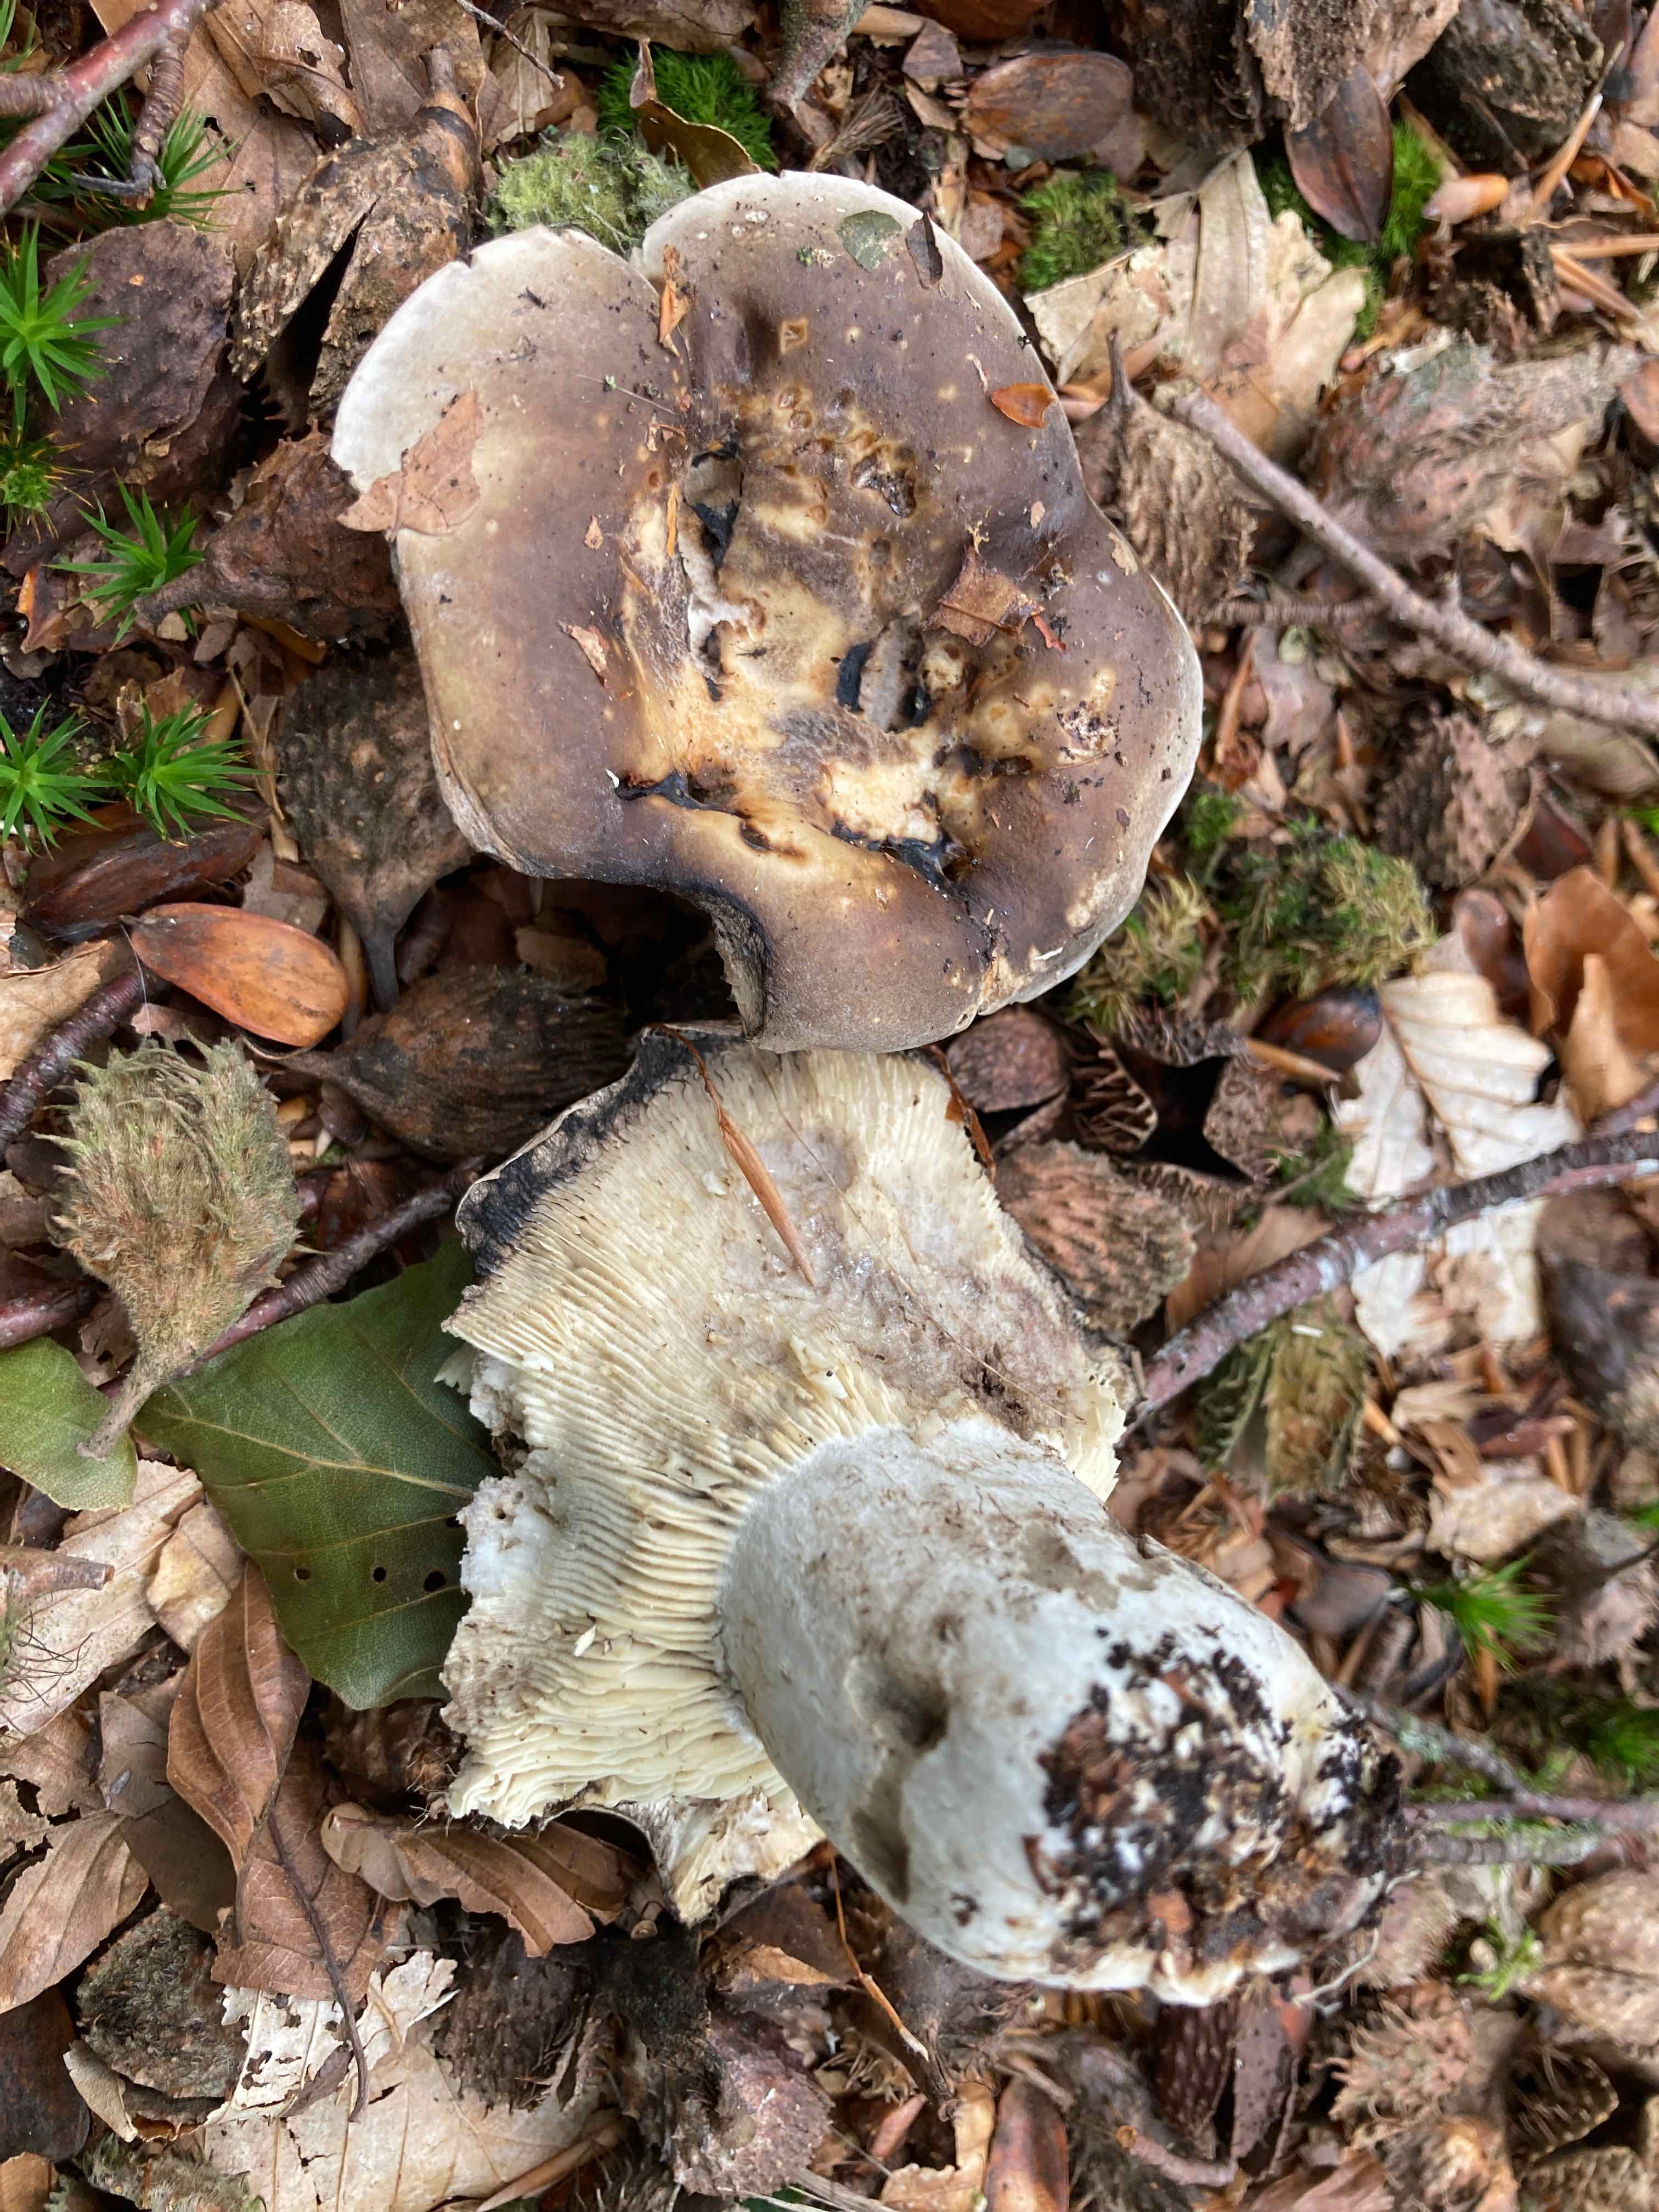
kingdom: Fungi
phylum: Basidiomycota
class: Agaricomycetes
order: Russulales
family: Russulaceae
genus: Russula
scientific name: Russula densifolia
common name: tætbladet skørhat
